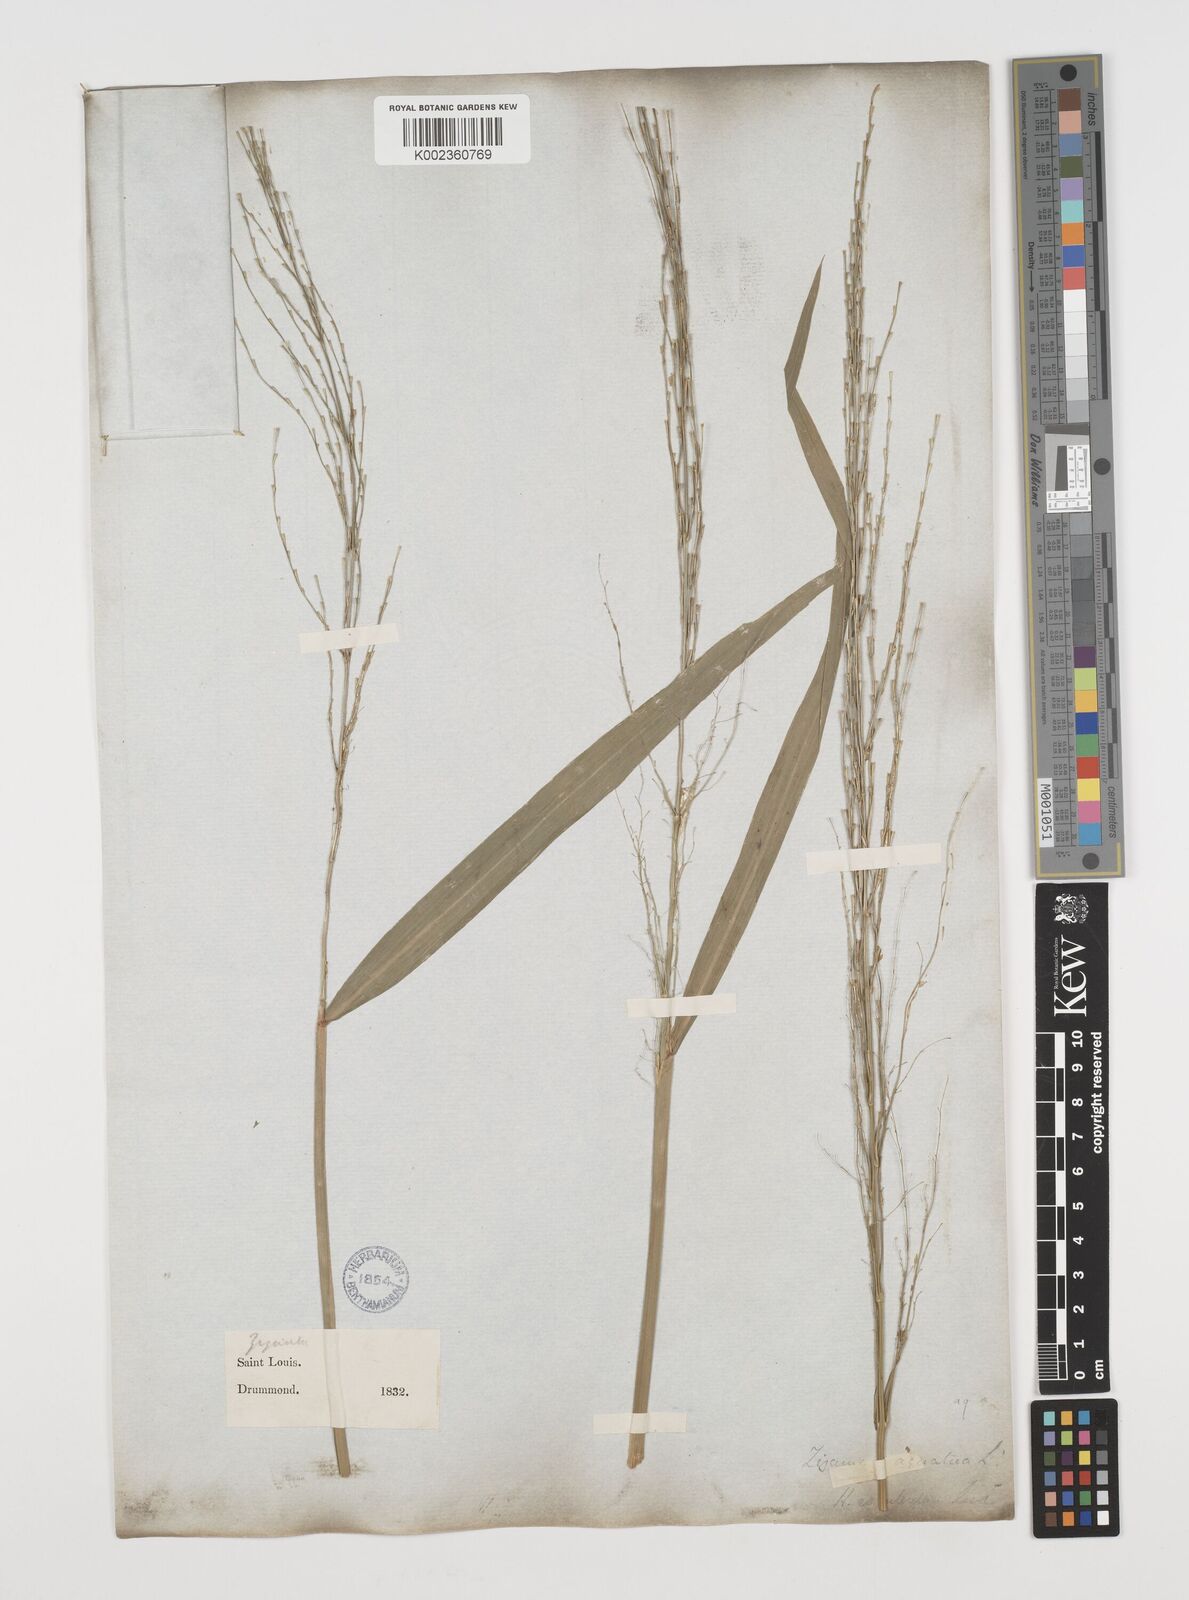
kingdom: Plantae
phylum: Tracheophyta
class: Liliopsida
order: Poales
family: Poaceae
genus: Zizania
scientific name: Zizania aquatica
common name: Annual wildrice
